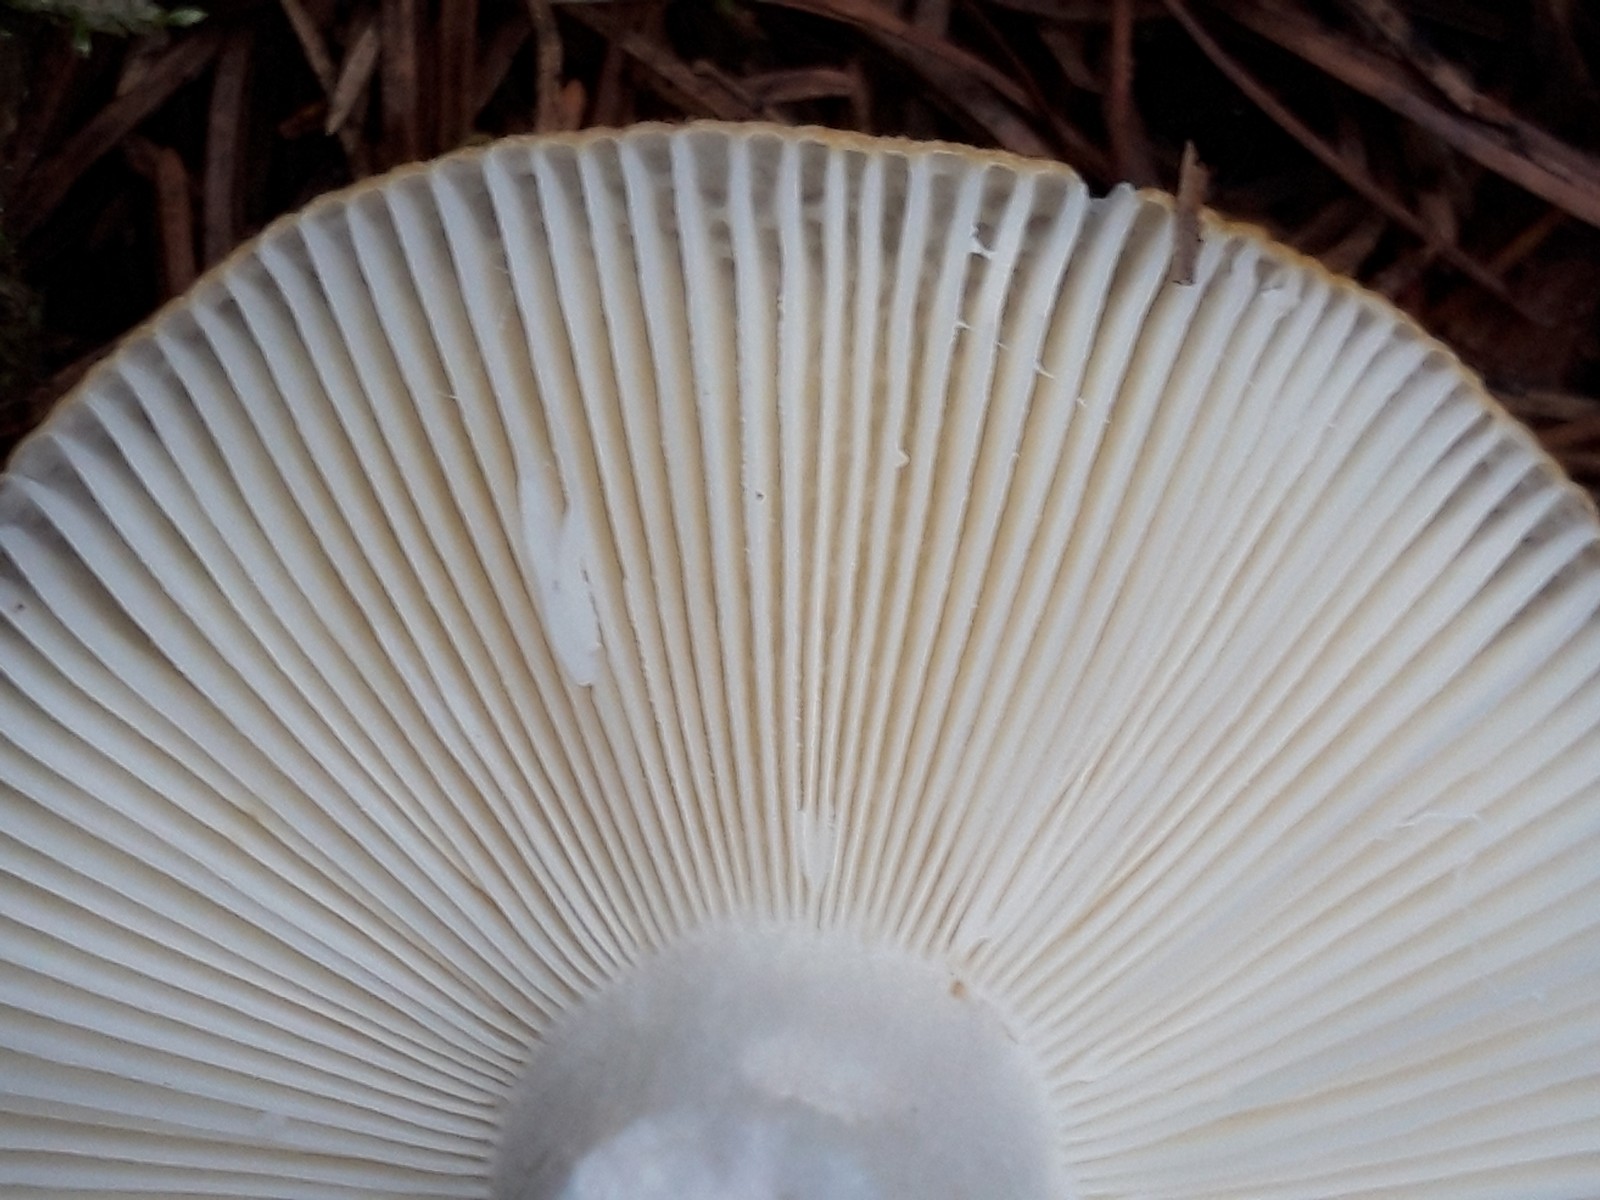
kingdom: Fungi
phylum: Basidiomycota
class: Agaricomycetes
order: Russulales
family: Russulaceae
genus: Russula
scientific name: Russula ochroleuca
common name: okkergul skørhat
